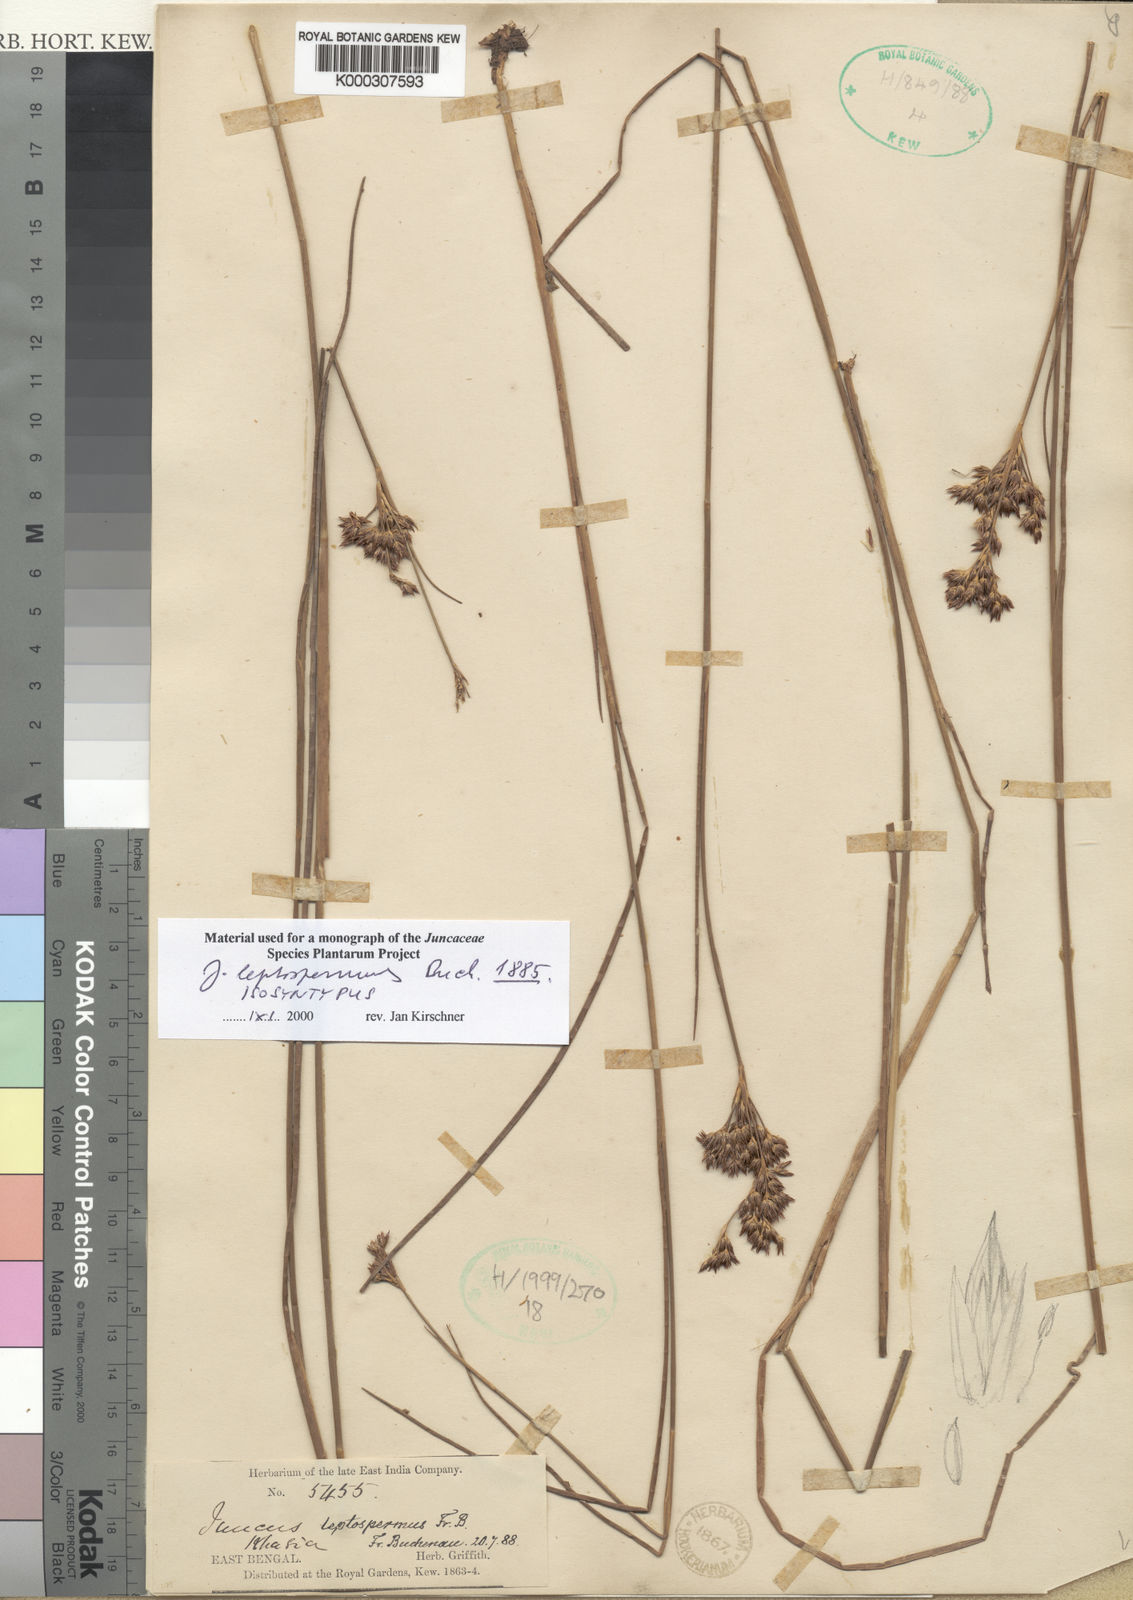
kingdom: Plantae
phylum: Tracheophyta
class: Liliopsida
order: Poales
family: Juncaceae
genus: Juncus
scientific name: Juncus leptospermus
